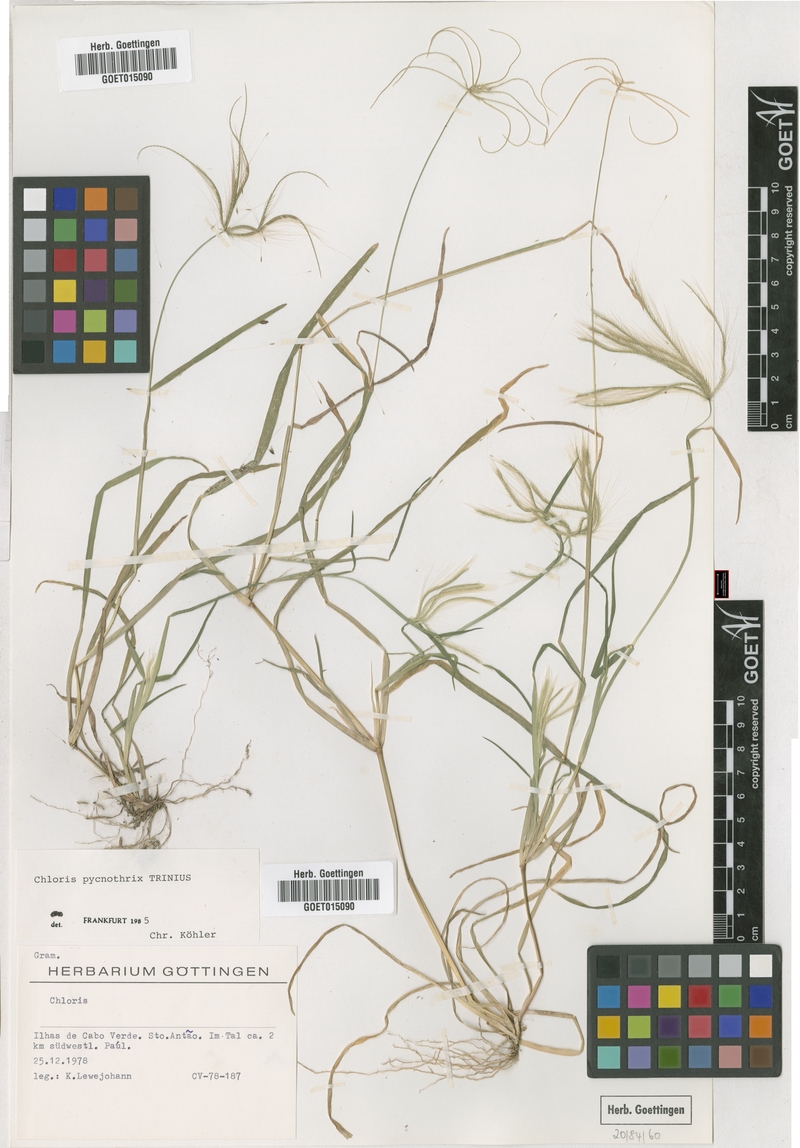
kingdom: Plantae
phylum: Tracheophyta
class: Liliopsida
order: Poales
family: Poaceae
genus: Chloris
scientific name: Chloris pycnothrix
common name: Spiderweb chloris
